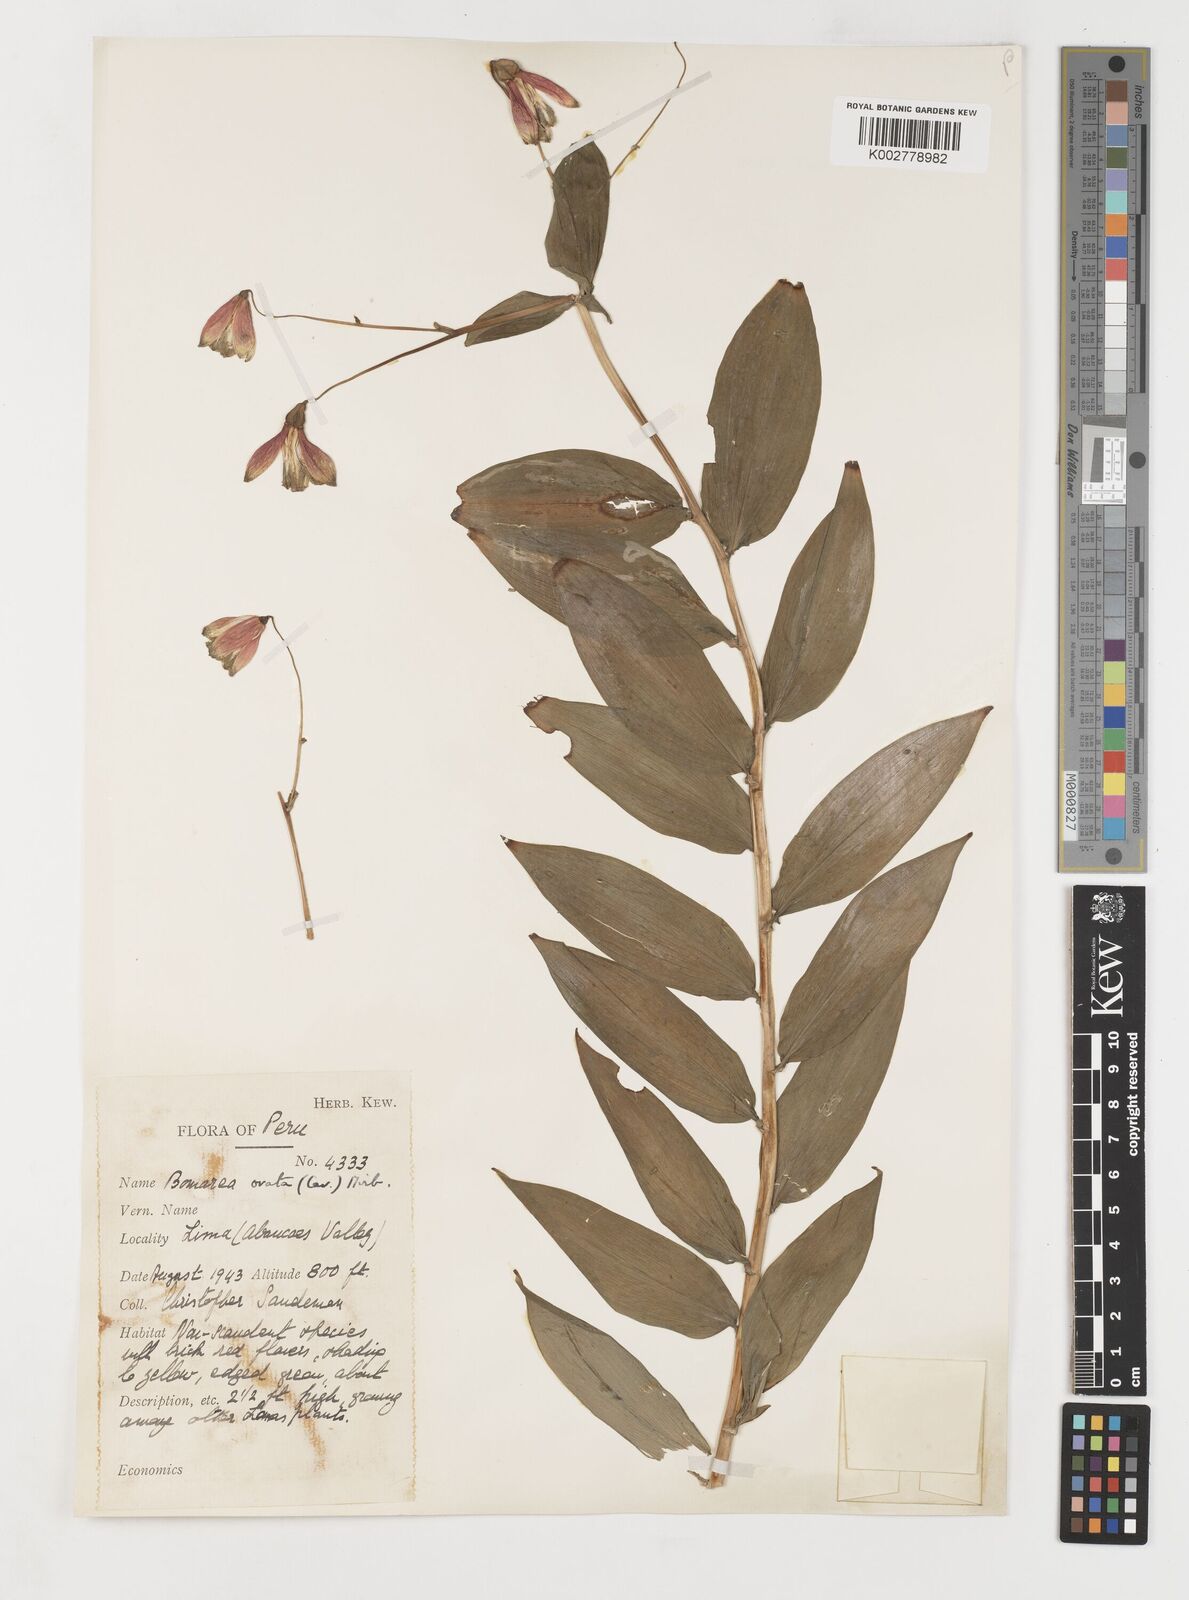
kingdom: Plantae
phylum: Tracheophyta
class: Liliopsida
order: Liliales
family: Alstroemeriaceae
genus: Bomarea
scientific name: Bomarea ovata
